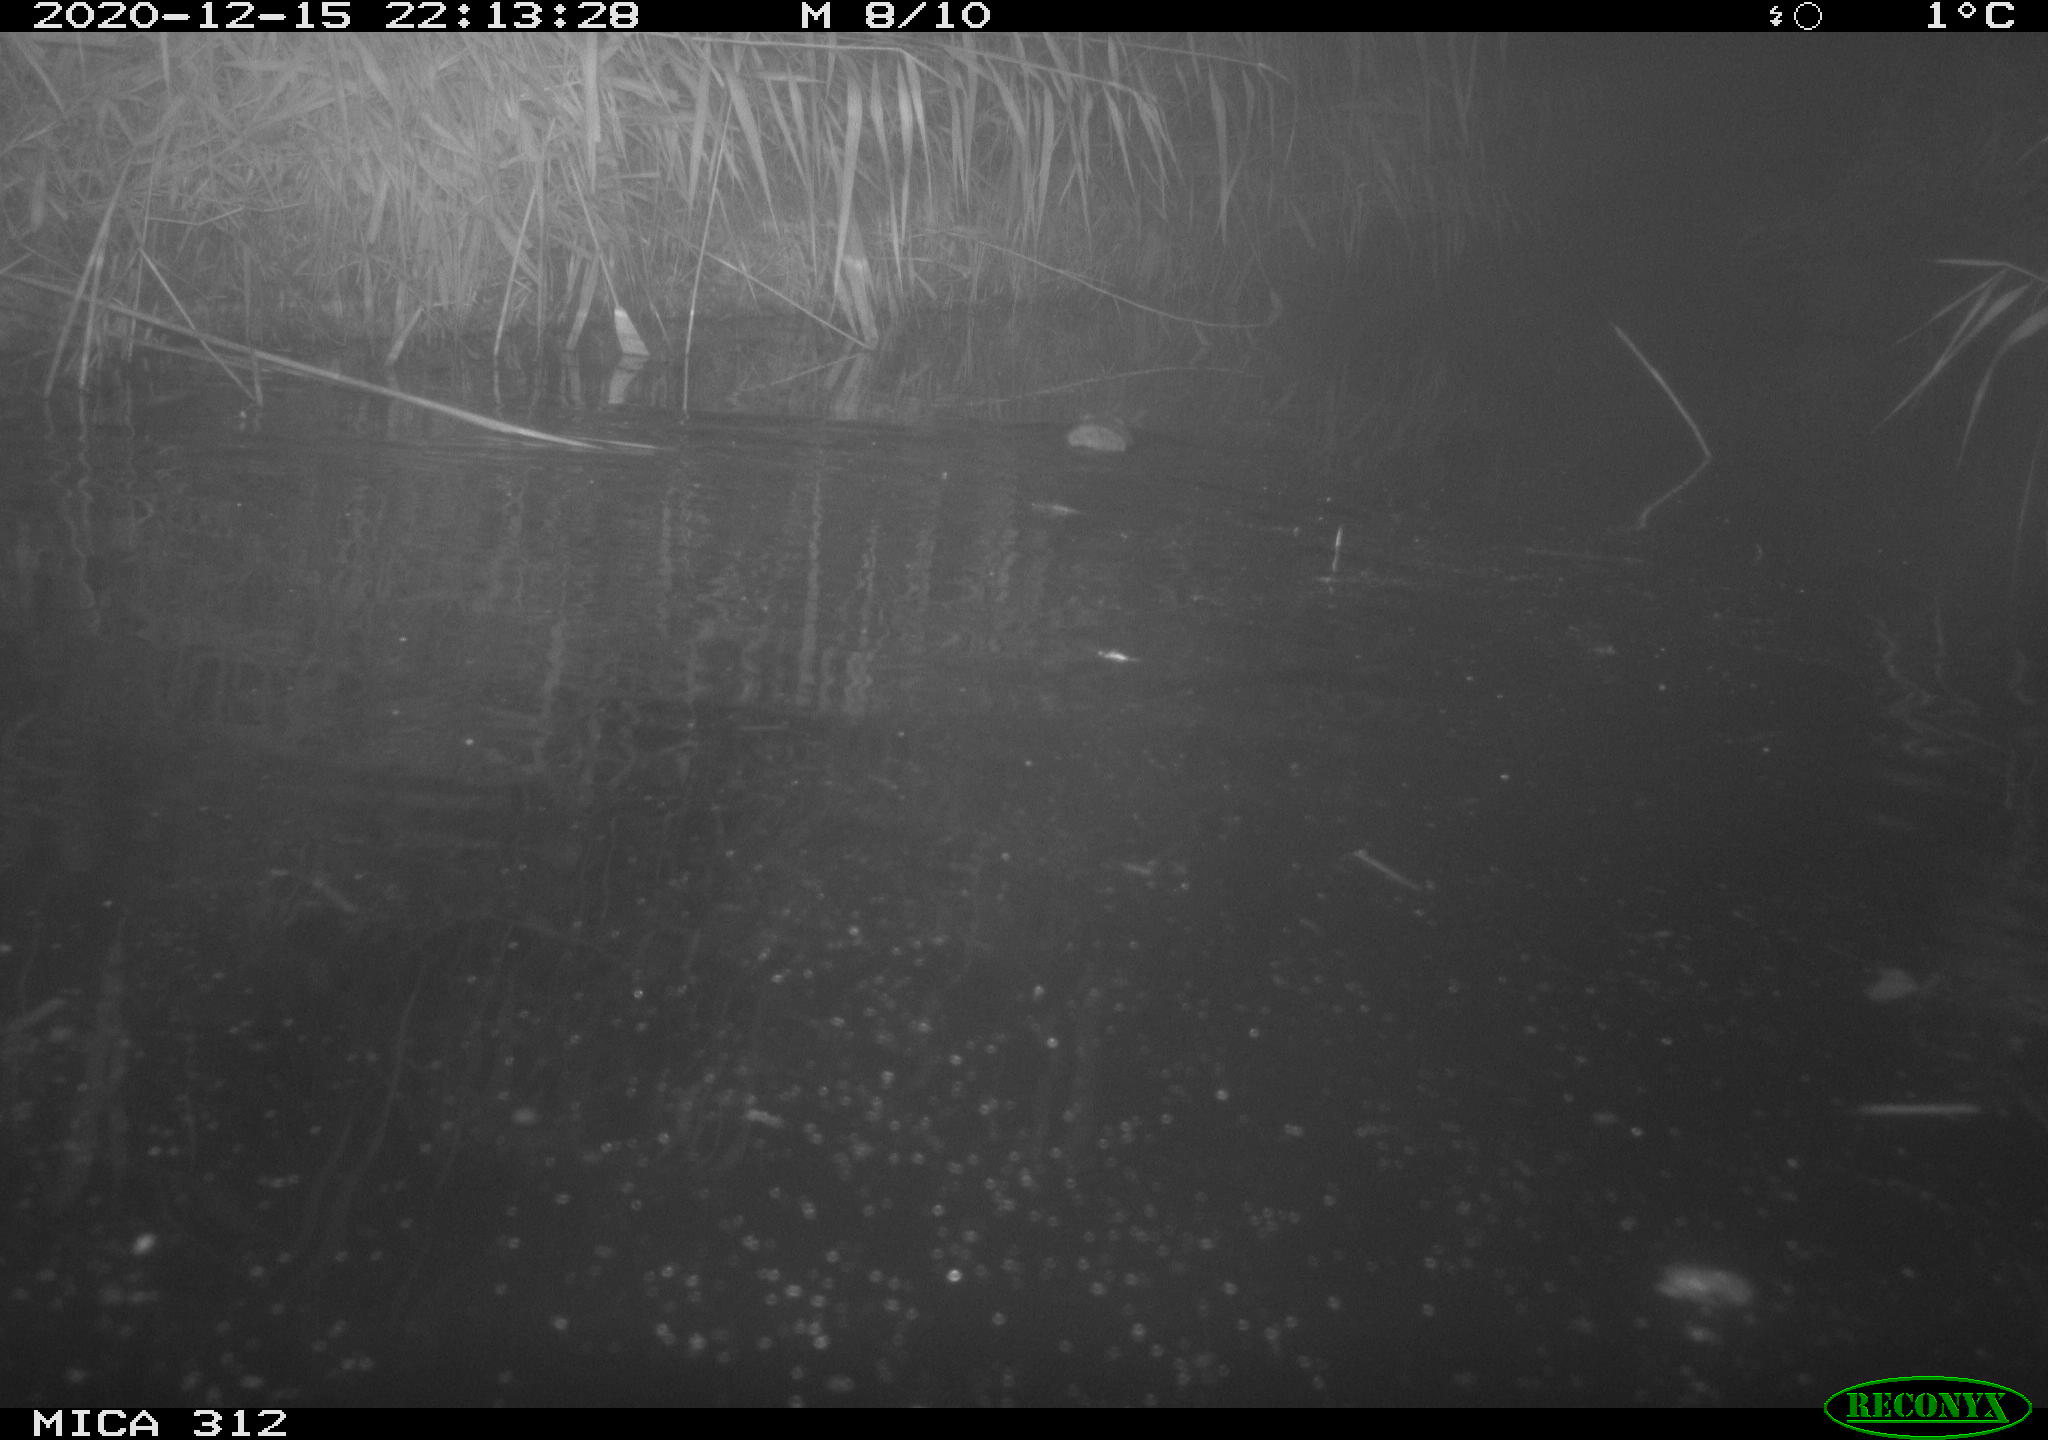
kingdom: Animalia
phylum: Chordata
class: Mammalia
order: Rodentia
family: Muridae
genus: Rattus
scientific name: Rattus norvegicus
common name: Brown rat
